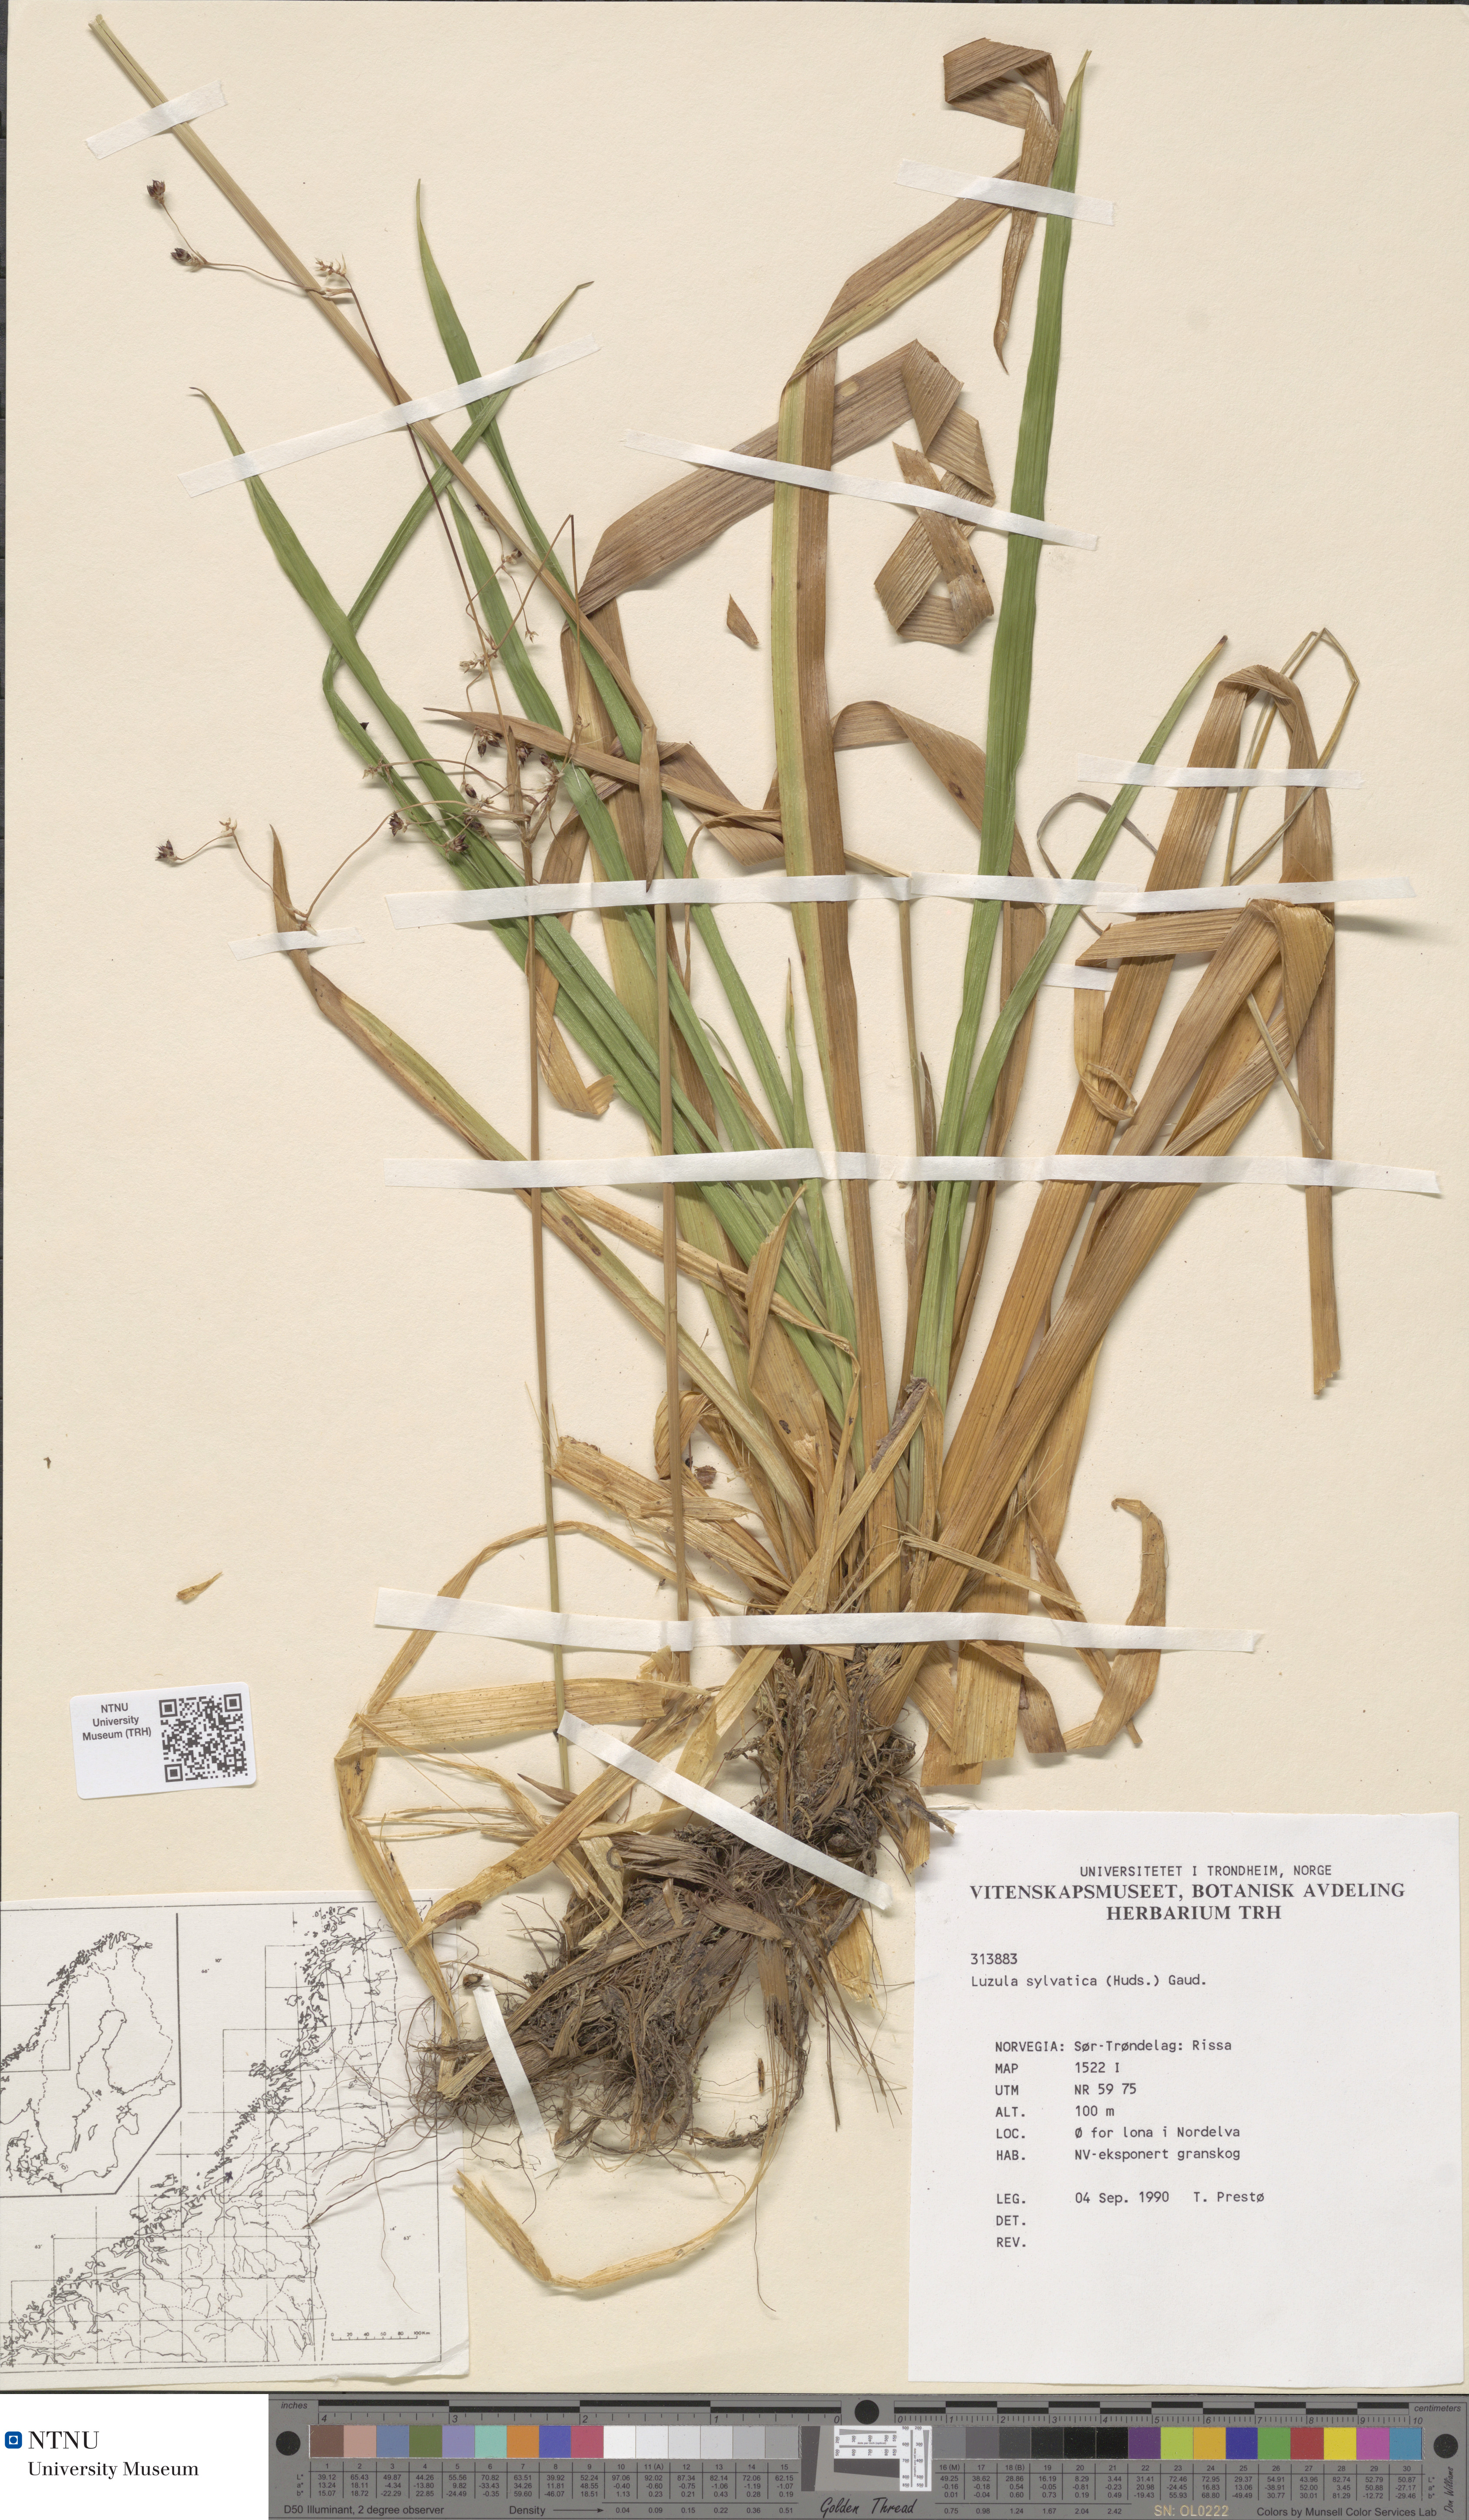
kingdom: Plantae
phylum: Tracheophyta
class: Liliopsida
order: Poales
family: Juncaceae
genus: Luzula
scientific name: Luzula sylvatica
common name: Great wood-rush
